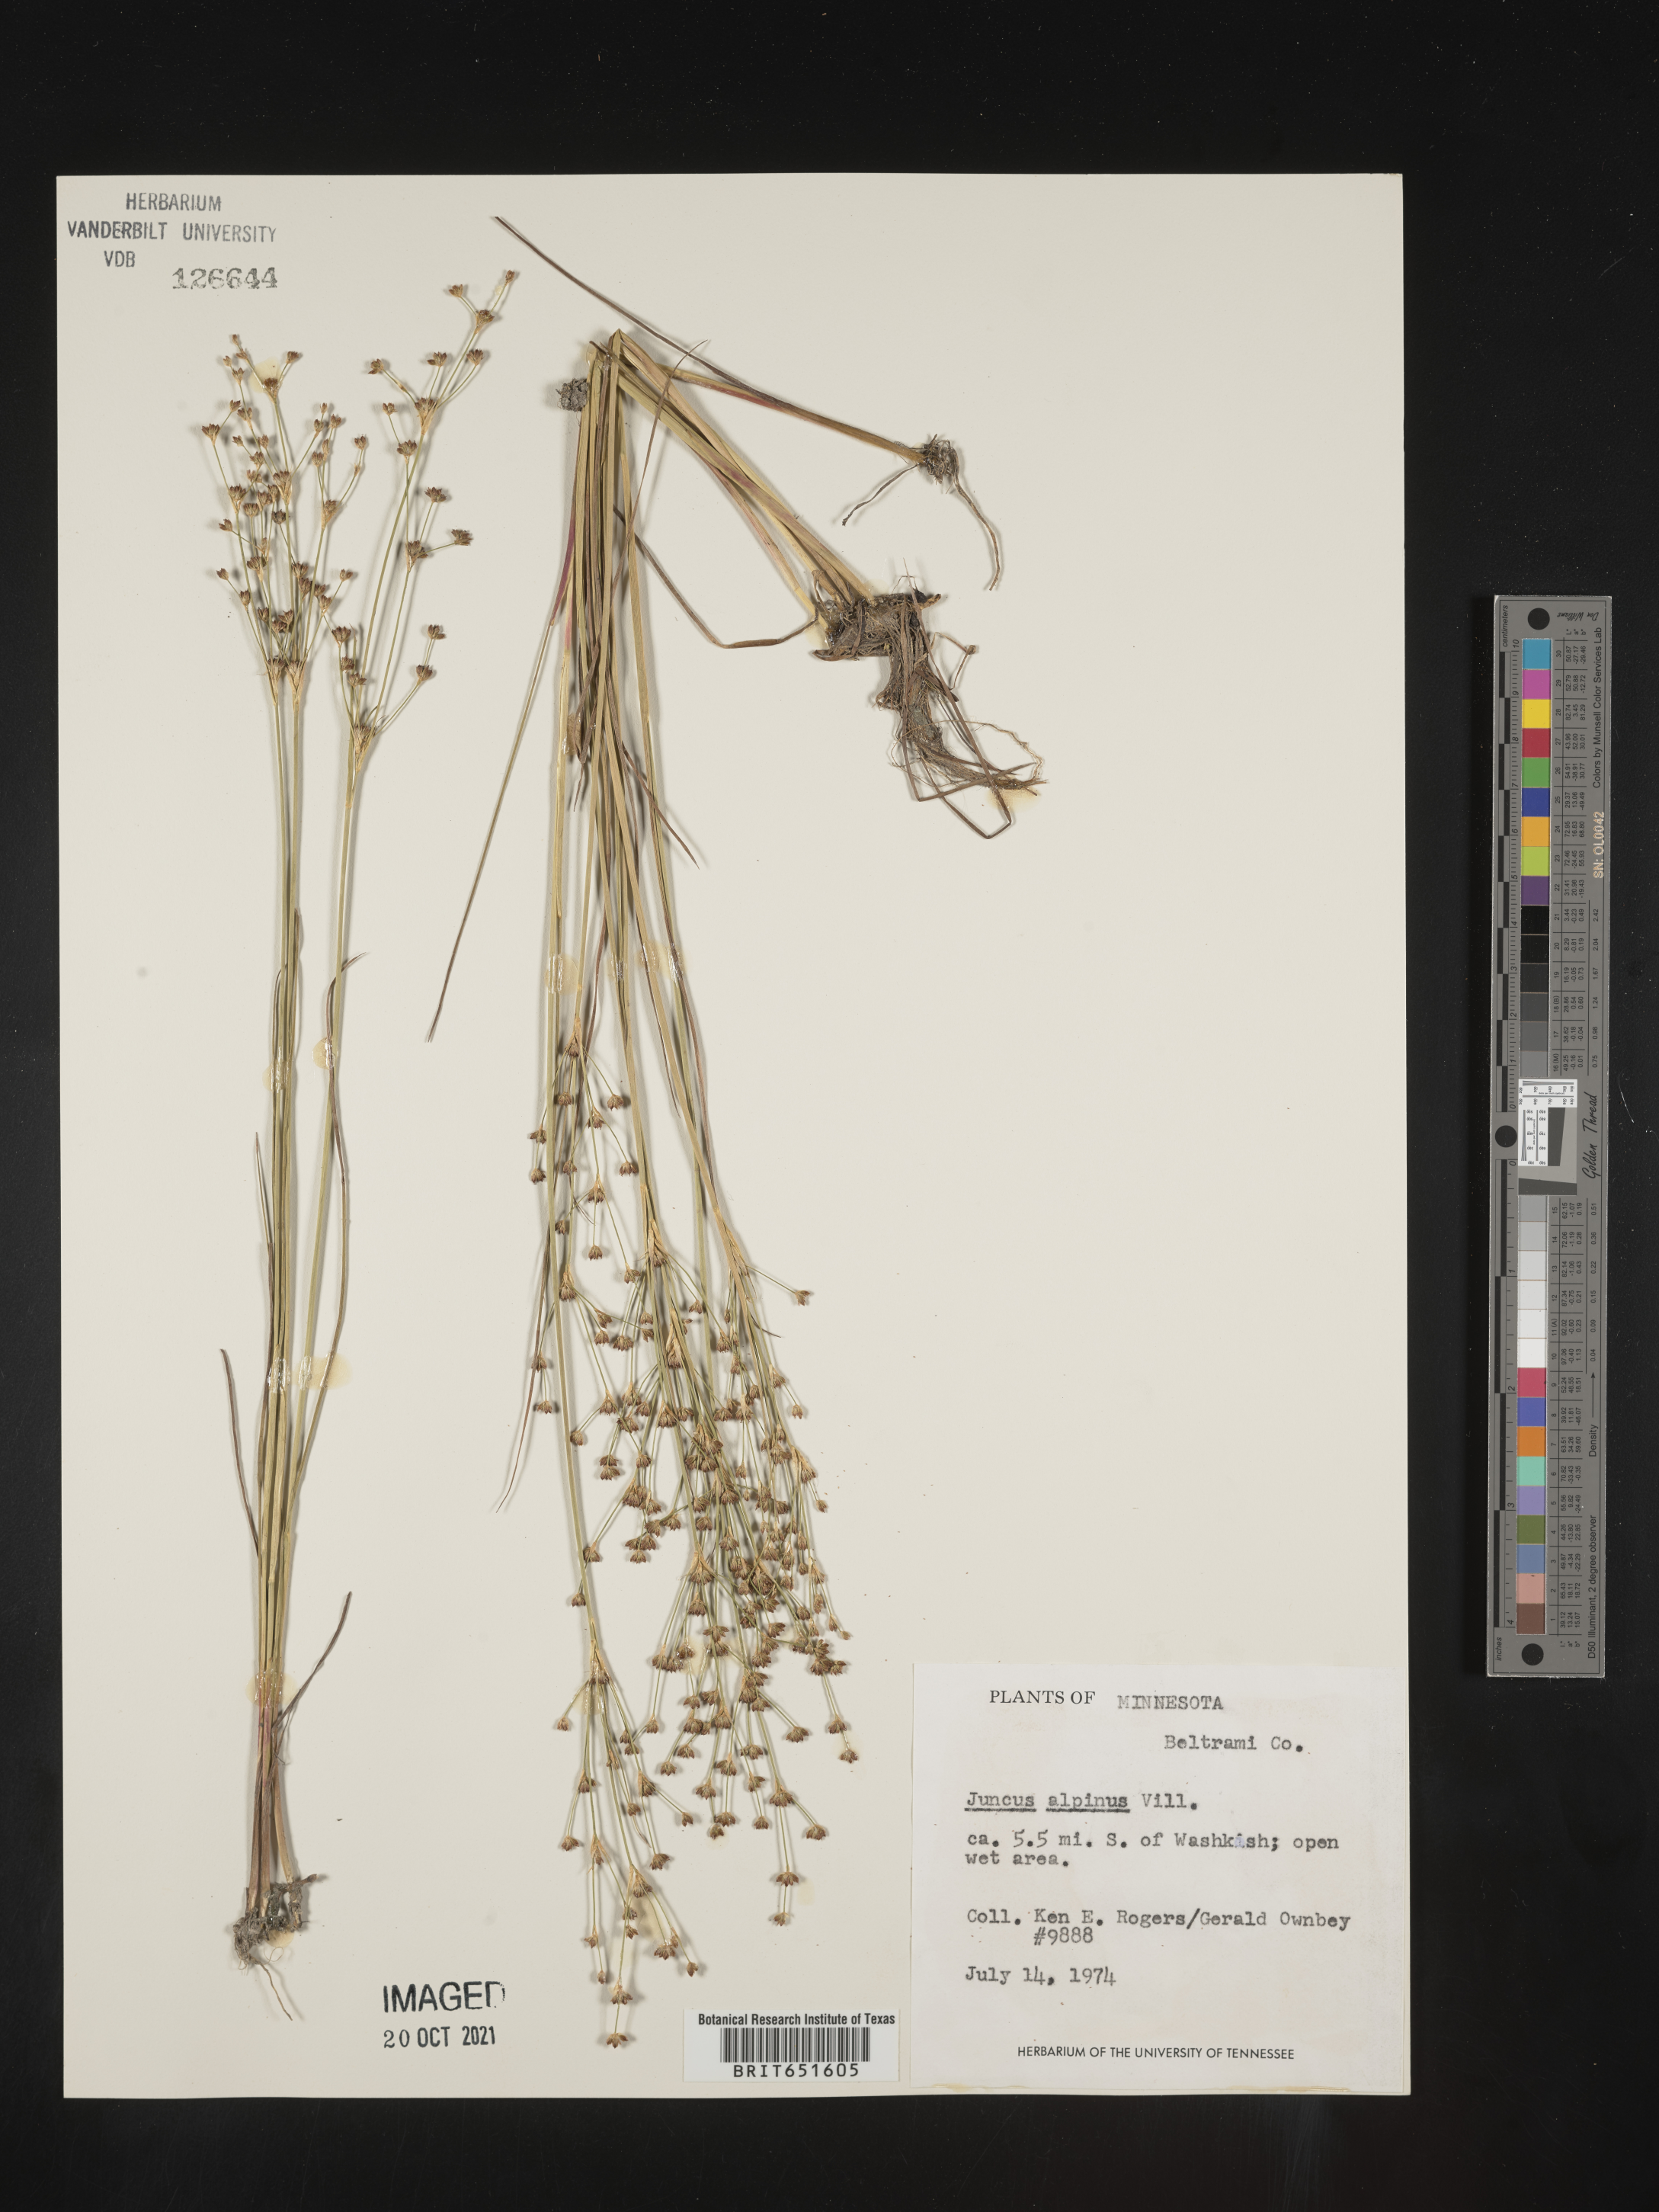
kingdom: Plantae
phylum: Tracheophyta
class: Liliopsida
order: Poales
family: Juncaceae
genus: Juncus
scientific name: Juncus alpinoarticulatus
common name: Alpine rush
